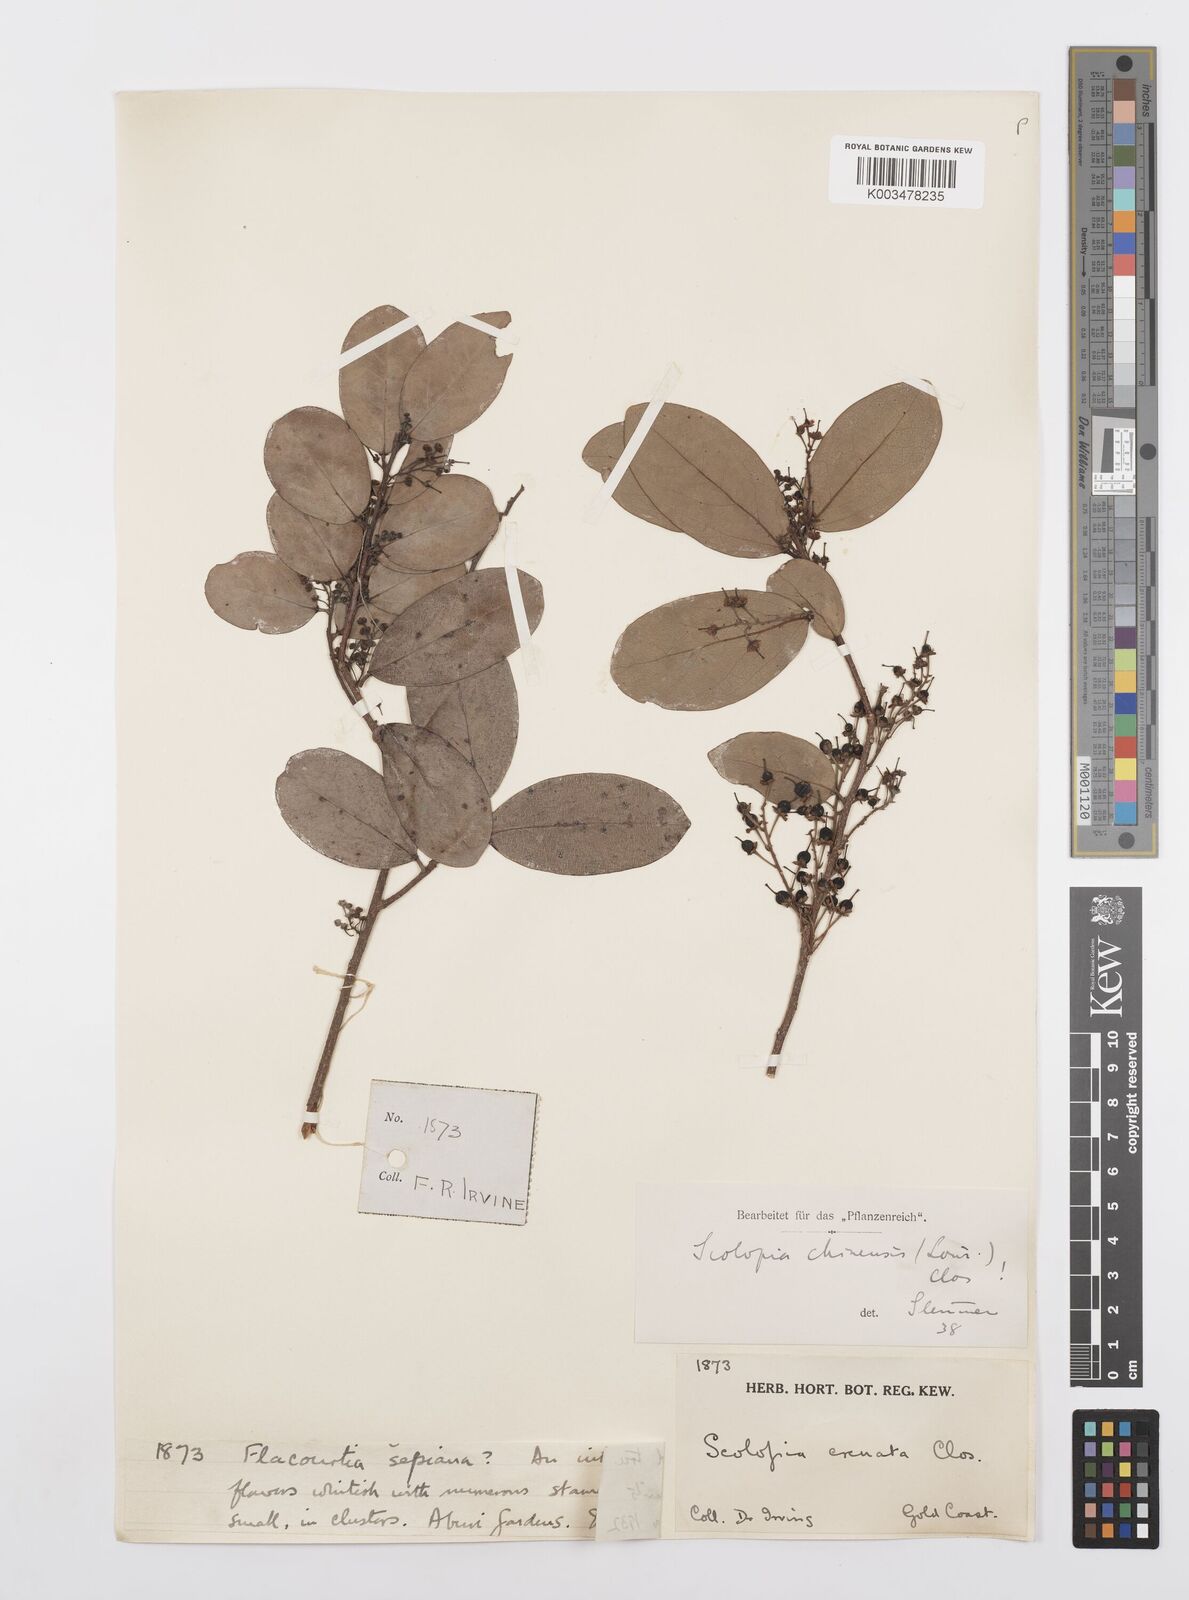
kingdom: Plantae
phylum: Tracheophyta
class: Magnoliopsida
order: Malpighiales
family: Salicaceae
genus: Scolopia
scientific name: Scolopia chinensis
